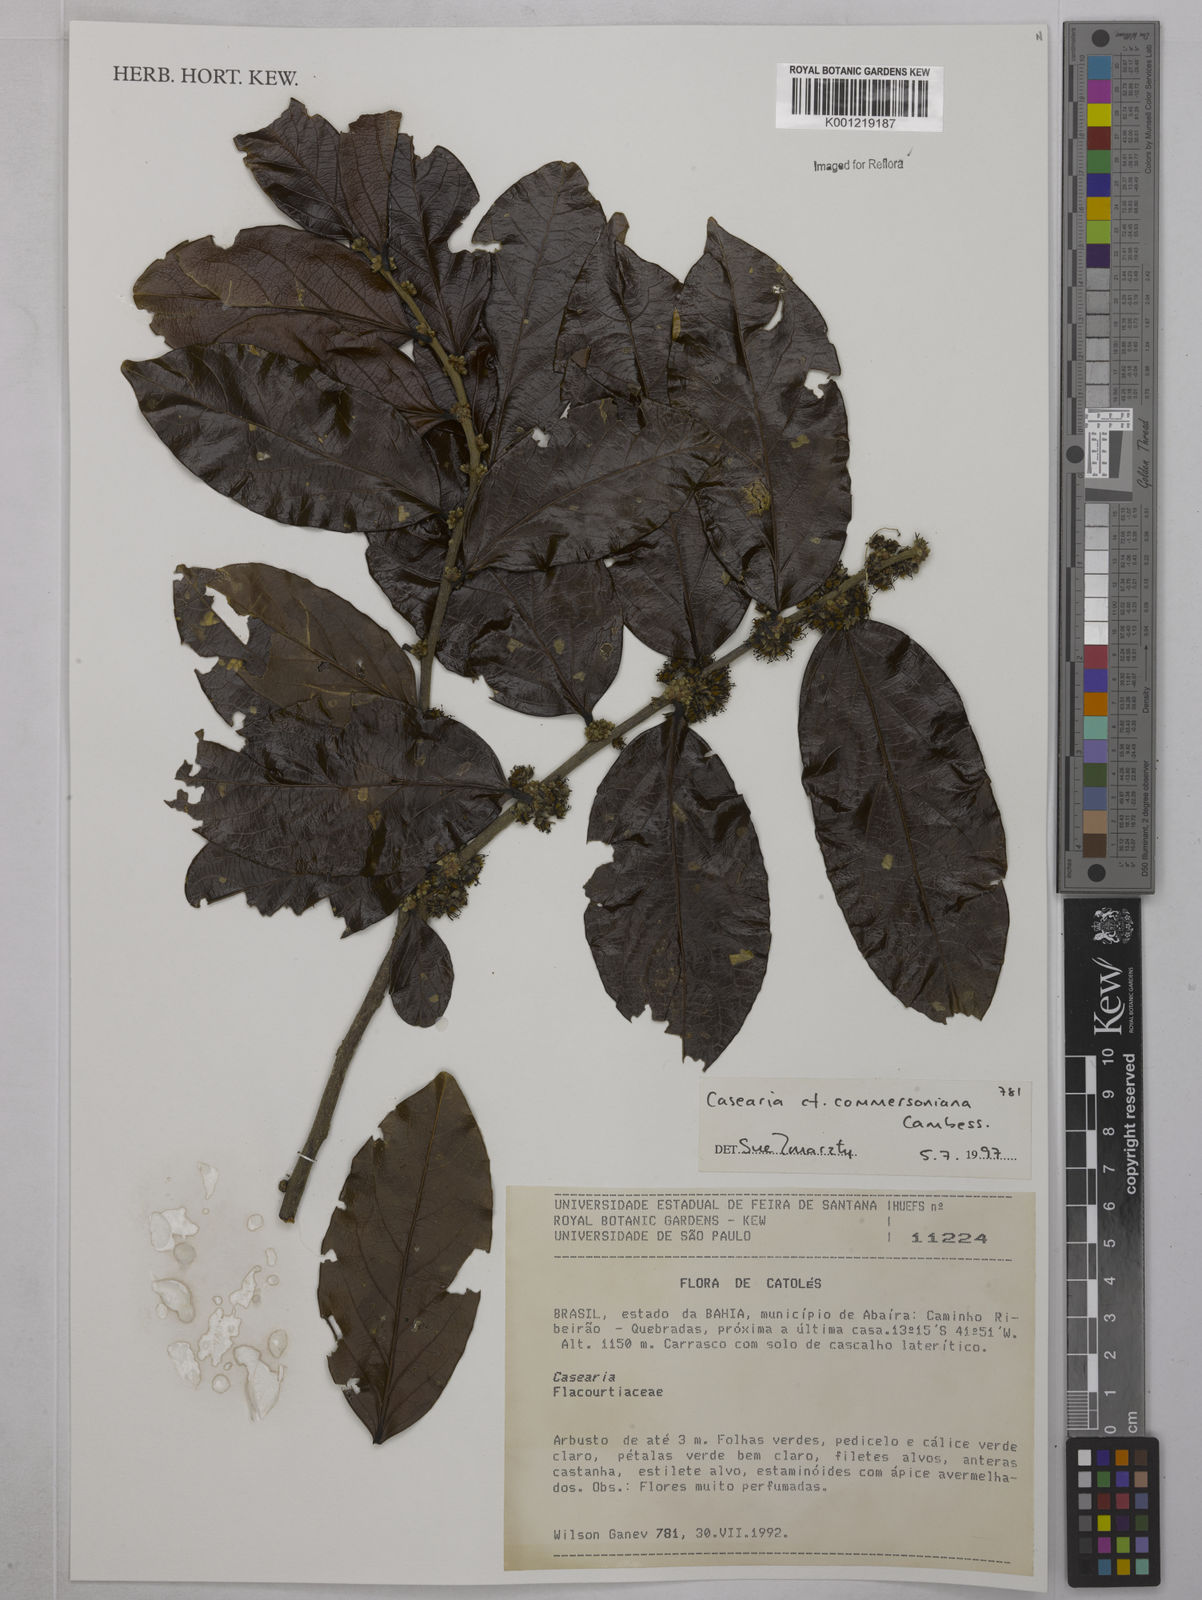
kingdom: Plantae
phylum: Tracheophyta
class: Magnoliopsida
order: Malpighiales
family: Salicaceae
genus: Piparea
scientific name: Piparea dentata
